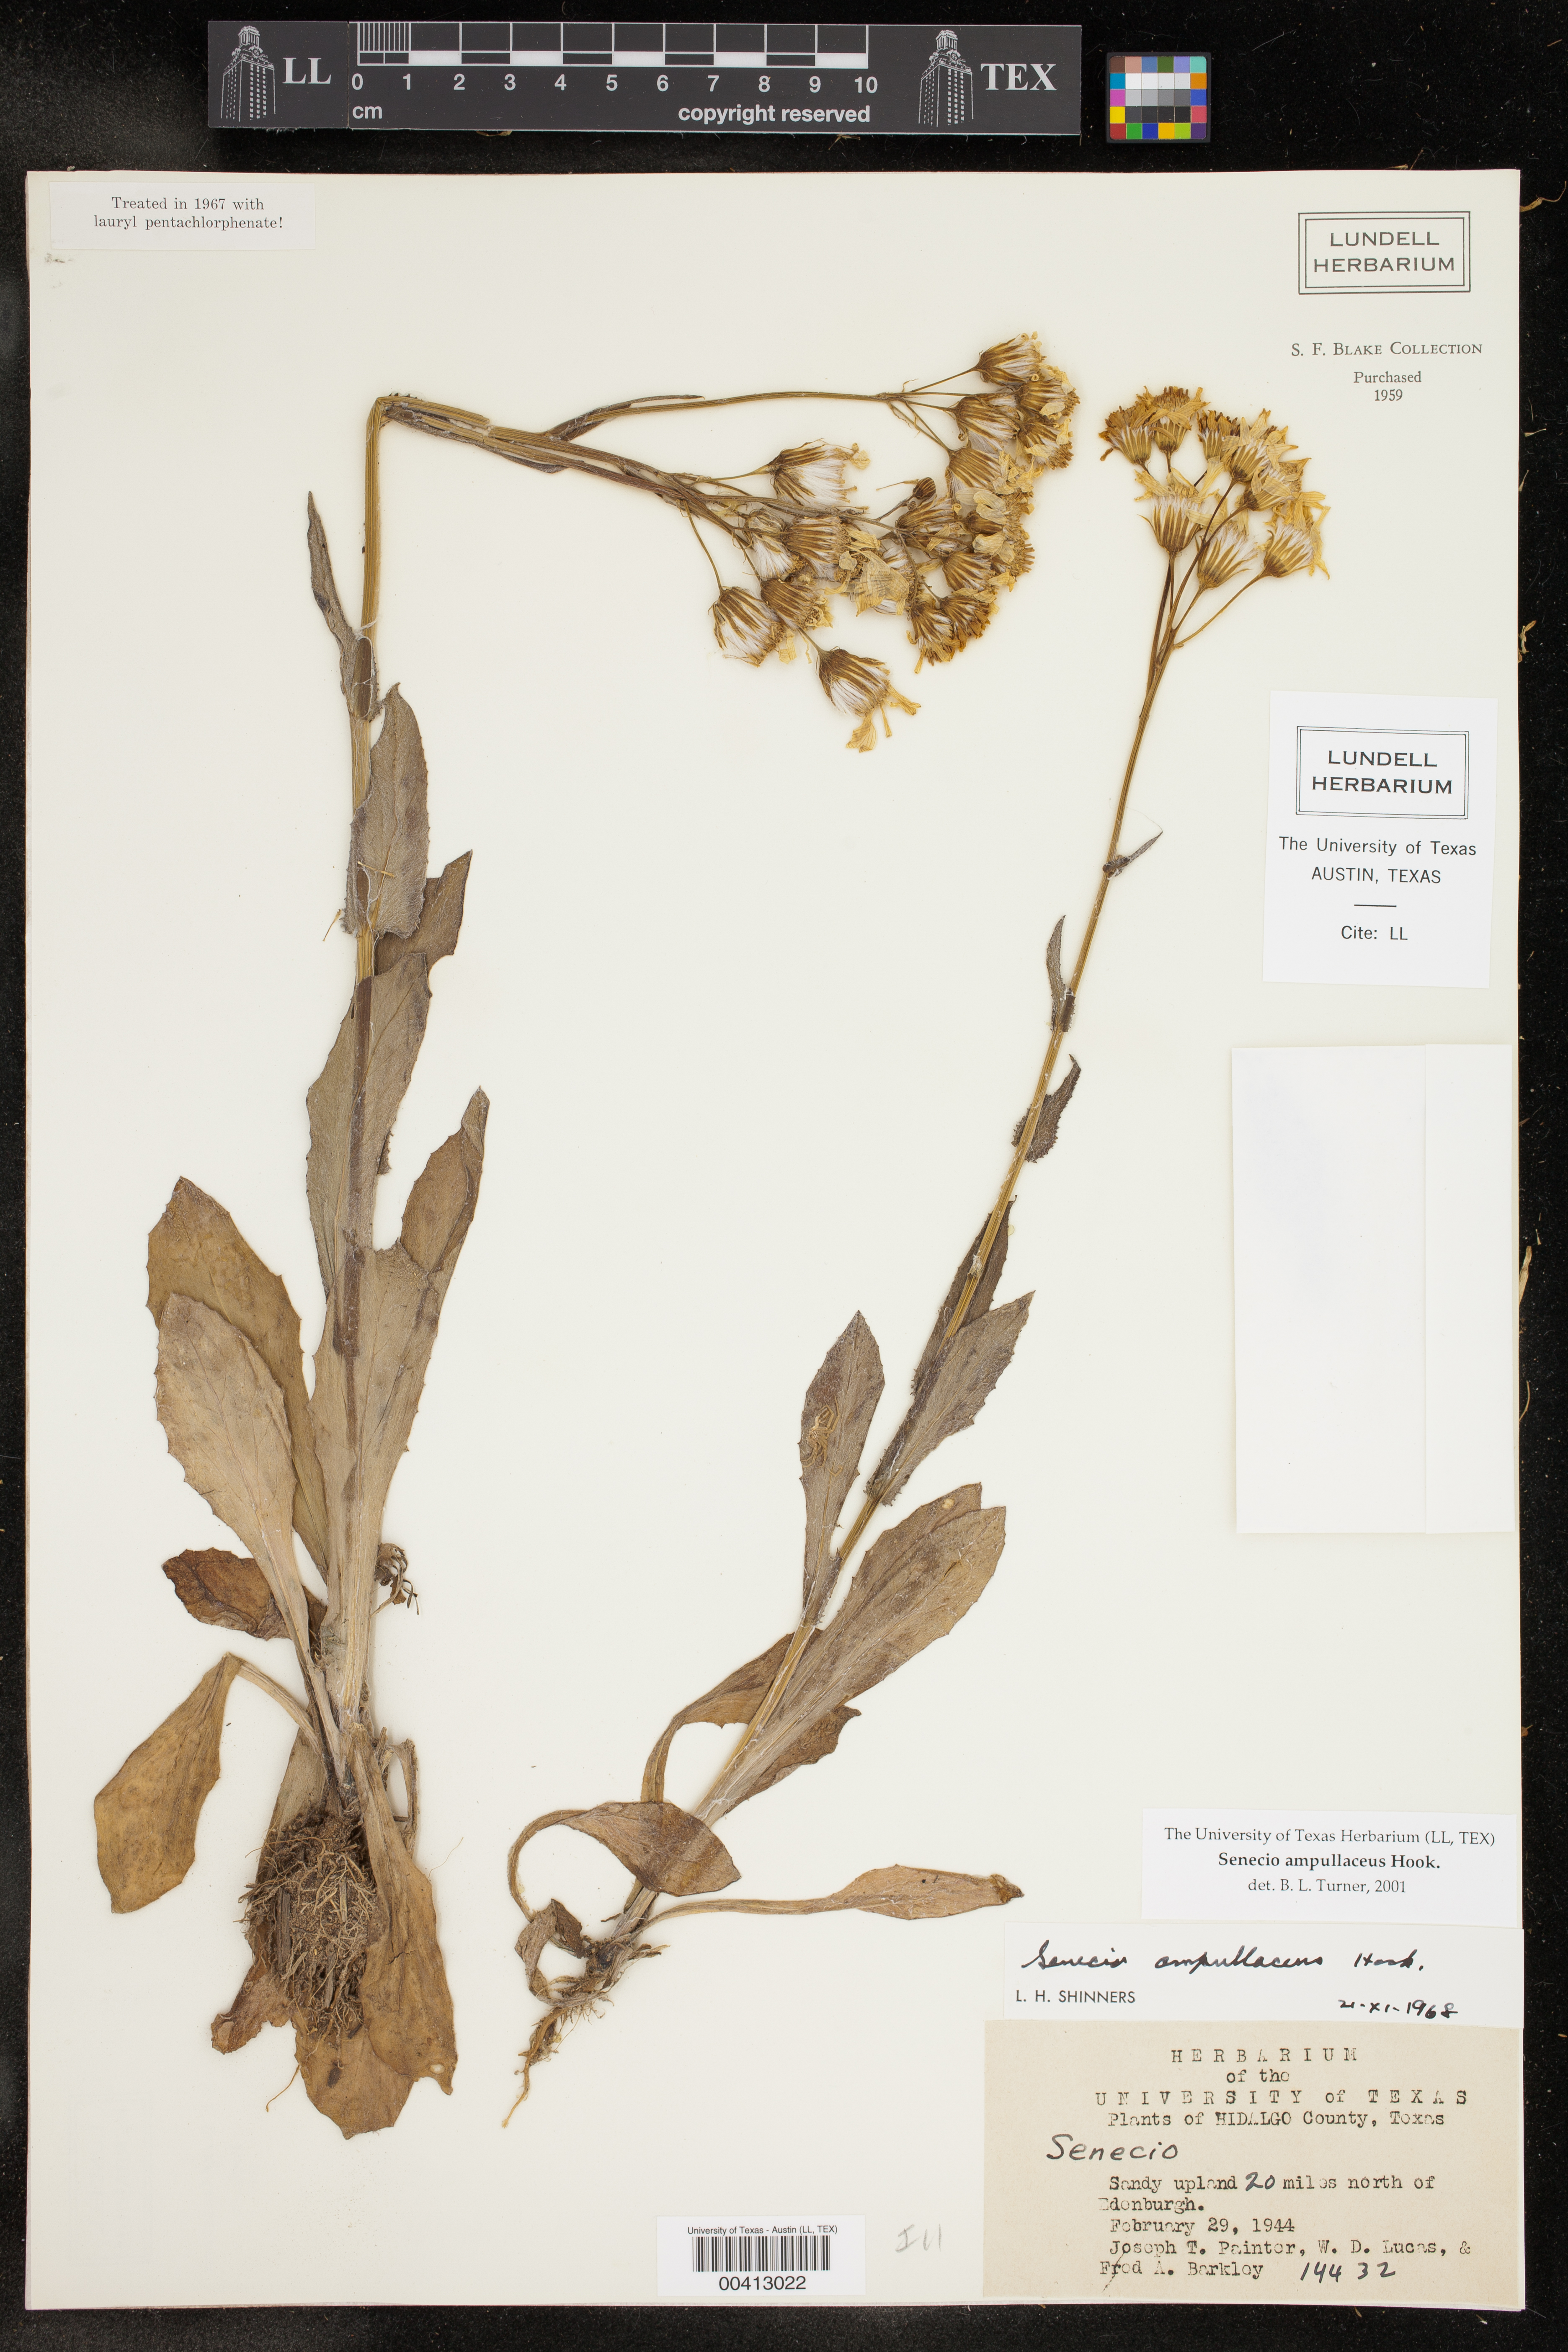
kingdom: Plantae
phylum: Tracheophyta
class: Magnoliopsida
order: Asterales
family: Asteraceae
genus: Senecio
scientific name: Senecio ampullaceus
